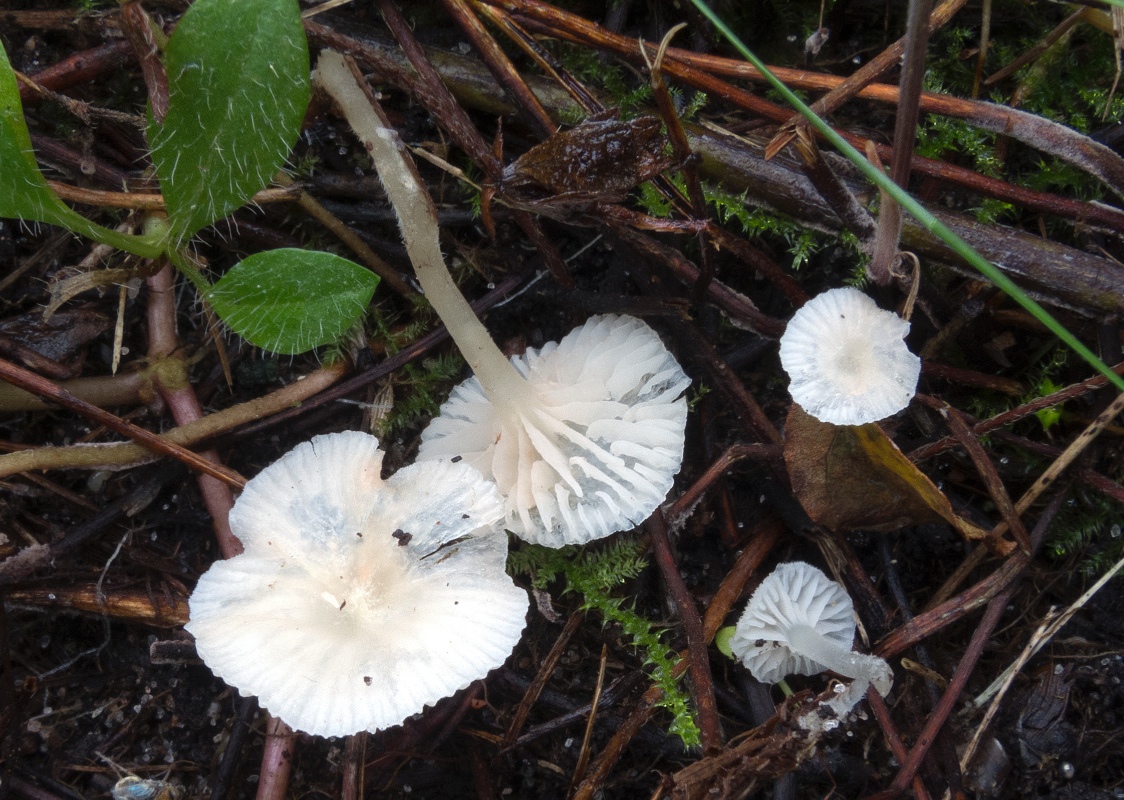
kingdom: Fungi
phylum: Basidiomycota
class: Agaricomycetes
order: Agaricales
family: Entolomataceae
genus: Entoloma
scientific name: Entoloma percandidum
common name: snehvid rødblad
